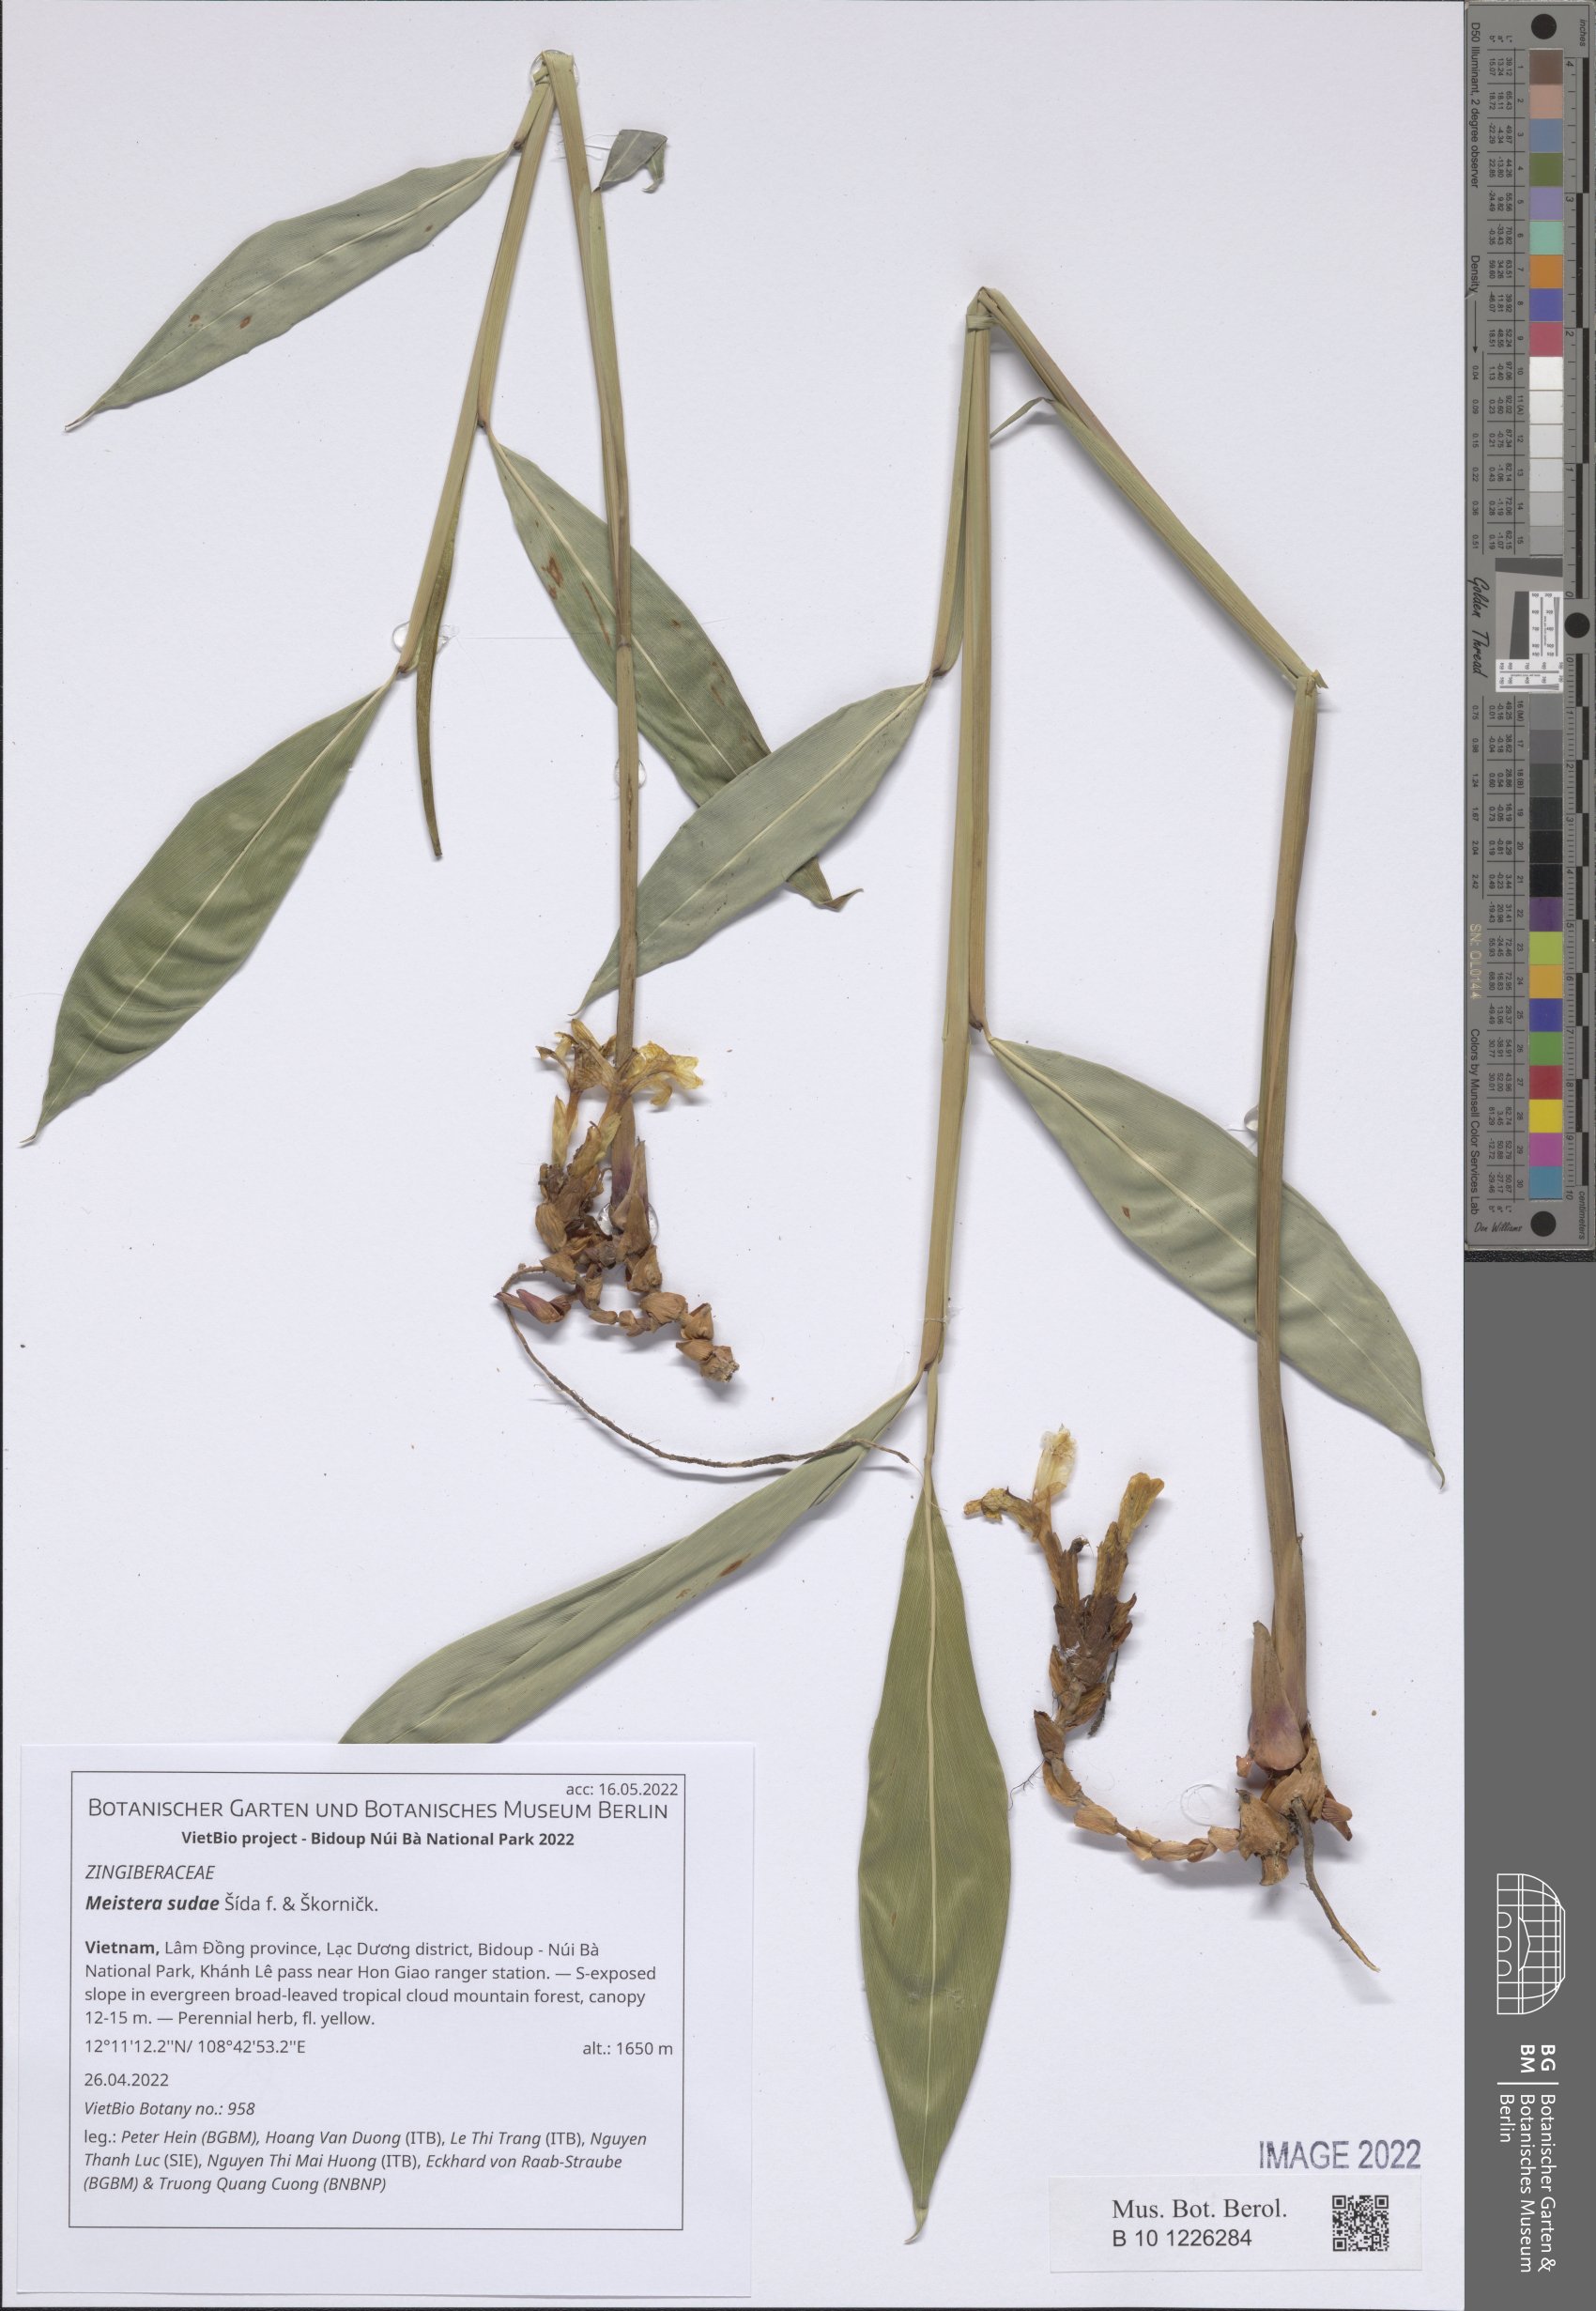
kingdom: Plantae
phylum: Tracheophyta
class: Liliopsida
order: Zingiberales
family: Zingiberaceae
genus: Meistera
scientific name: Meistera sudae
